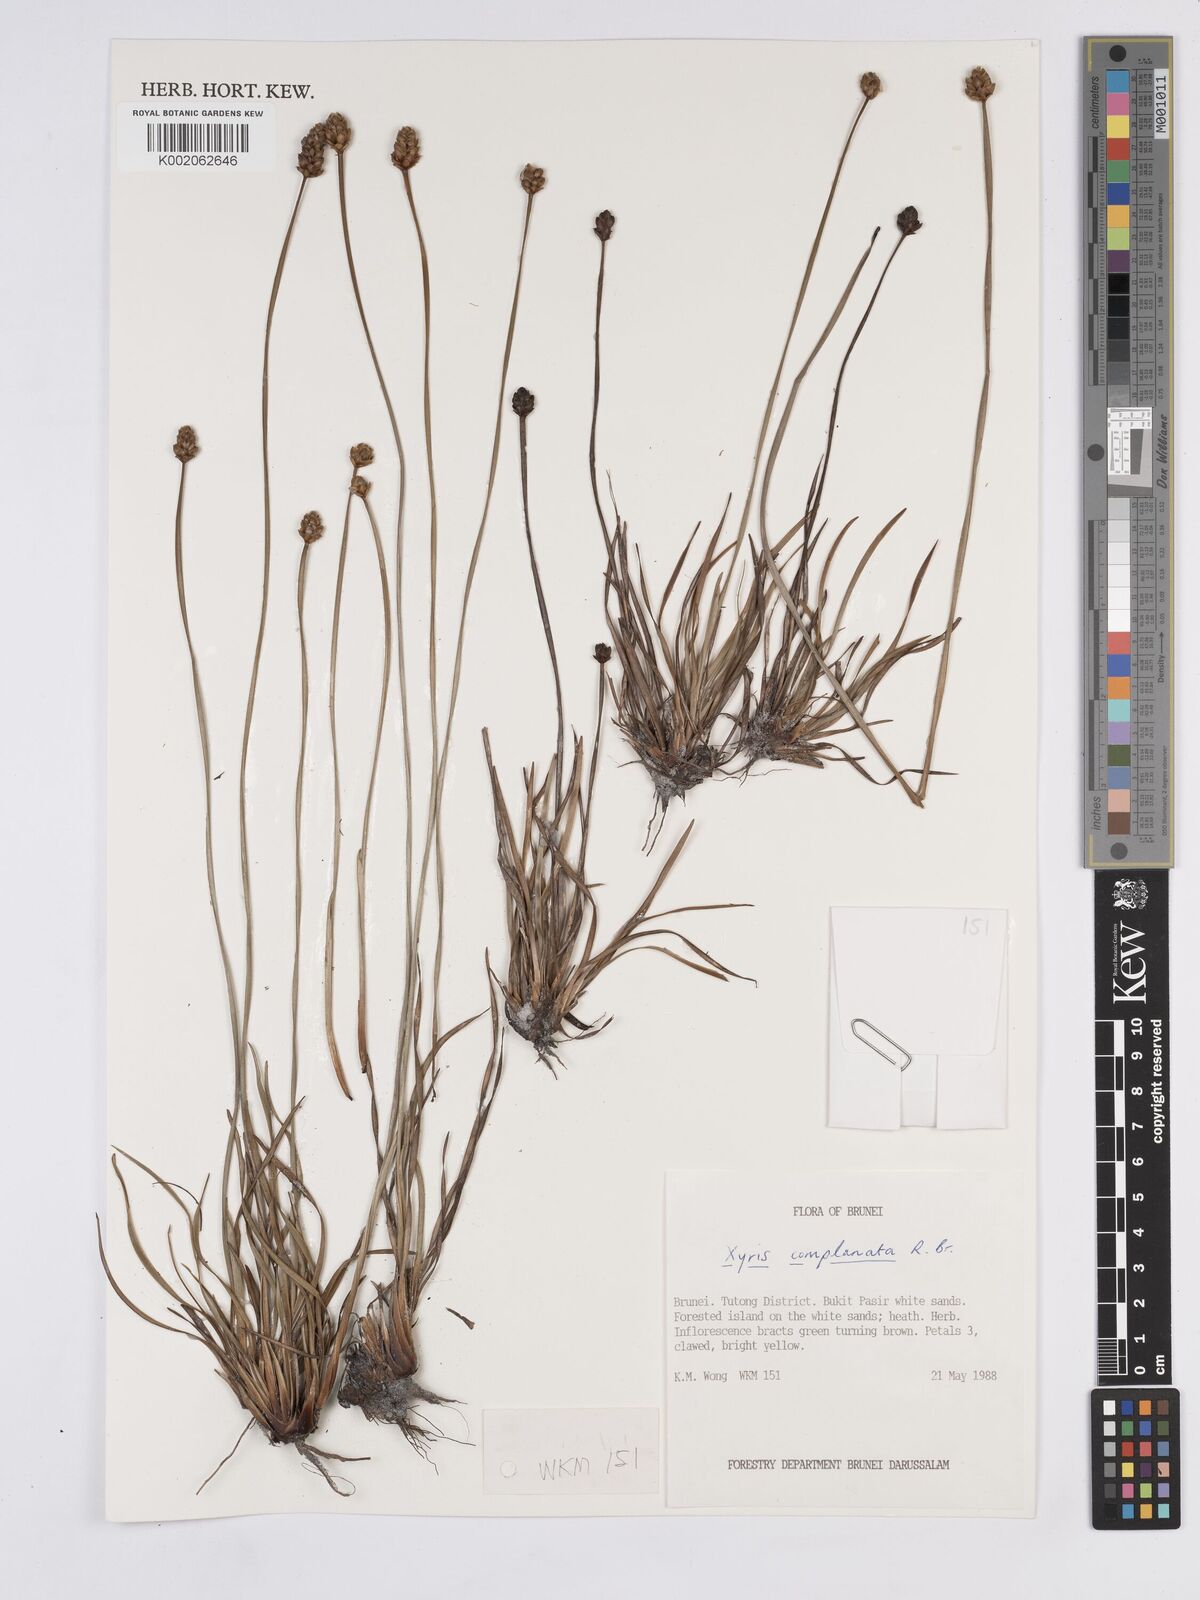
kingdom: Plantae
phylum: Tracheophyta
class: Liliopsida
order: Poales
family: Xyridaceae
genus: Xyris
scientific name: Xyris complanata
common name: Hawai'i yelloweyed grass
